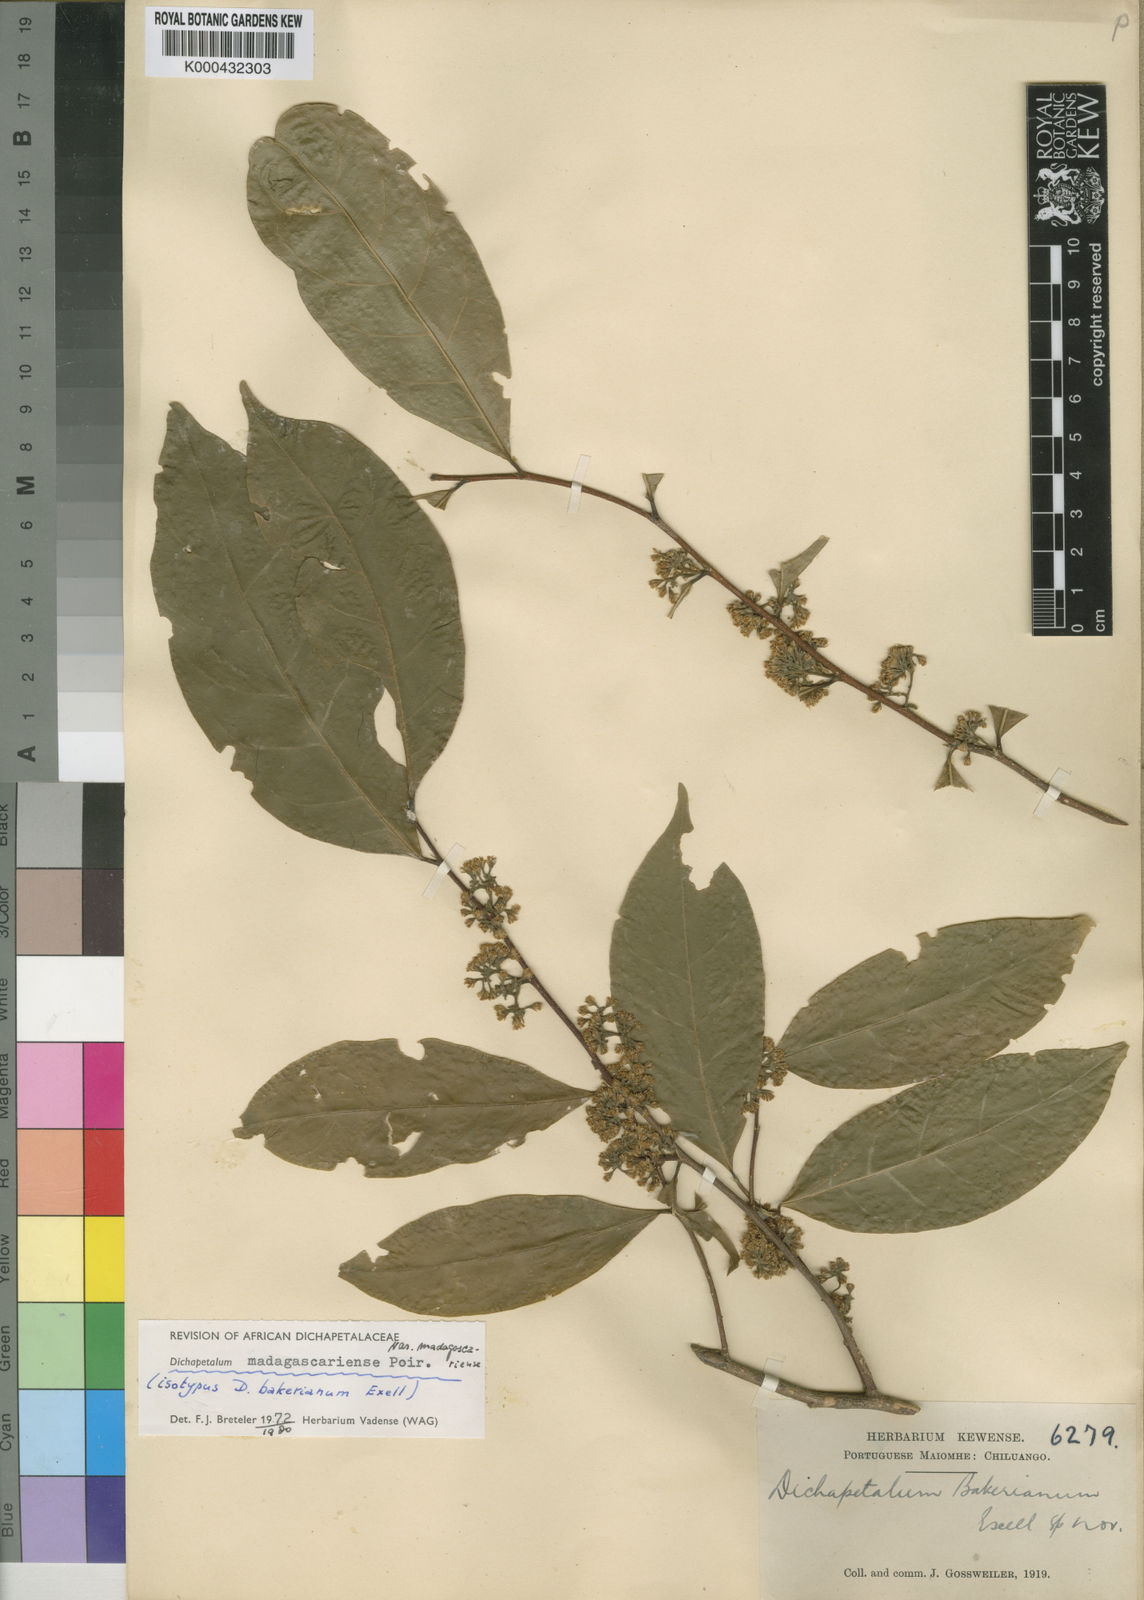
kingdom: Plantae
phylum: Tracheophyta
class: Magnoliopsida
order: Malpighiales
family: Dichapetalaceae
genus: Dichapetalum
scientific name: Dichapetalum madagascariense
